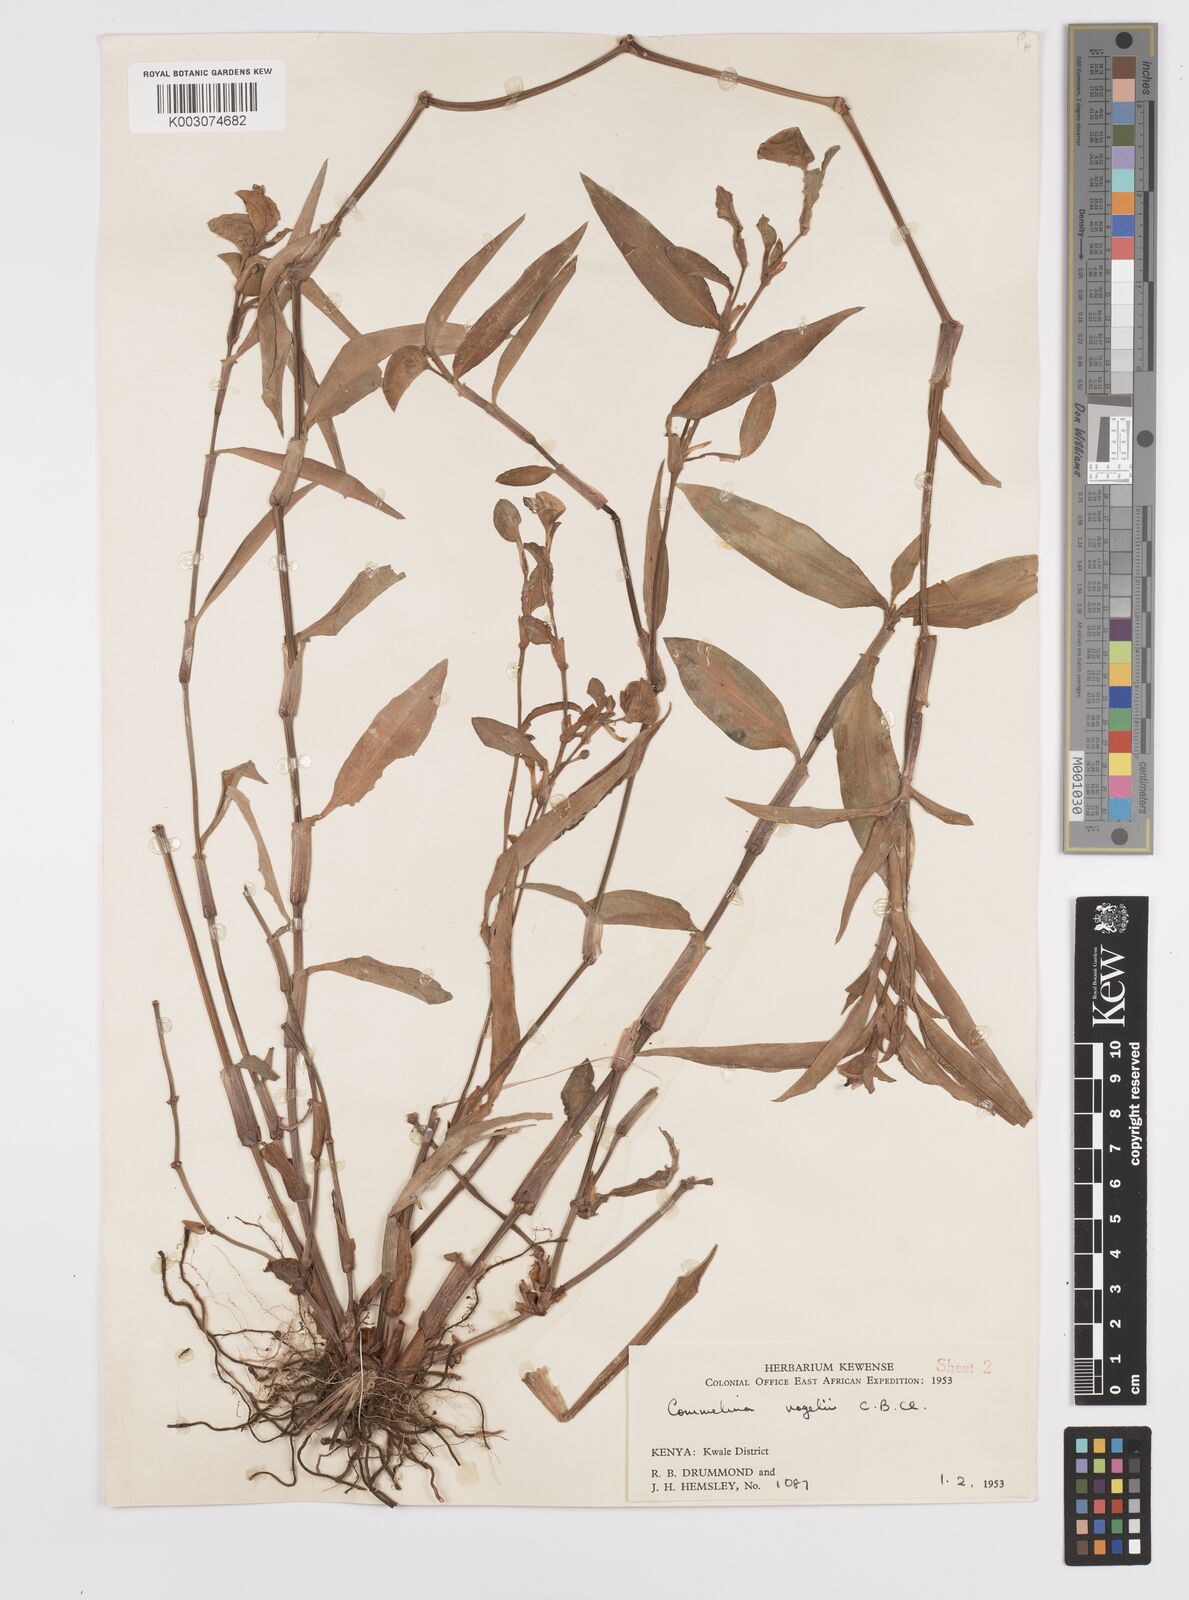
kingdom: Plantae
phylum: Tracheophyta
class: Liliopsida
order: Commelinales
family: Commelinaceae
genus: Commelina
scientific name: Commelina bracteosa
